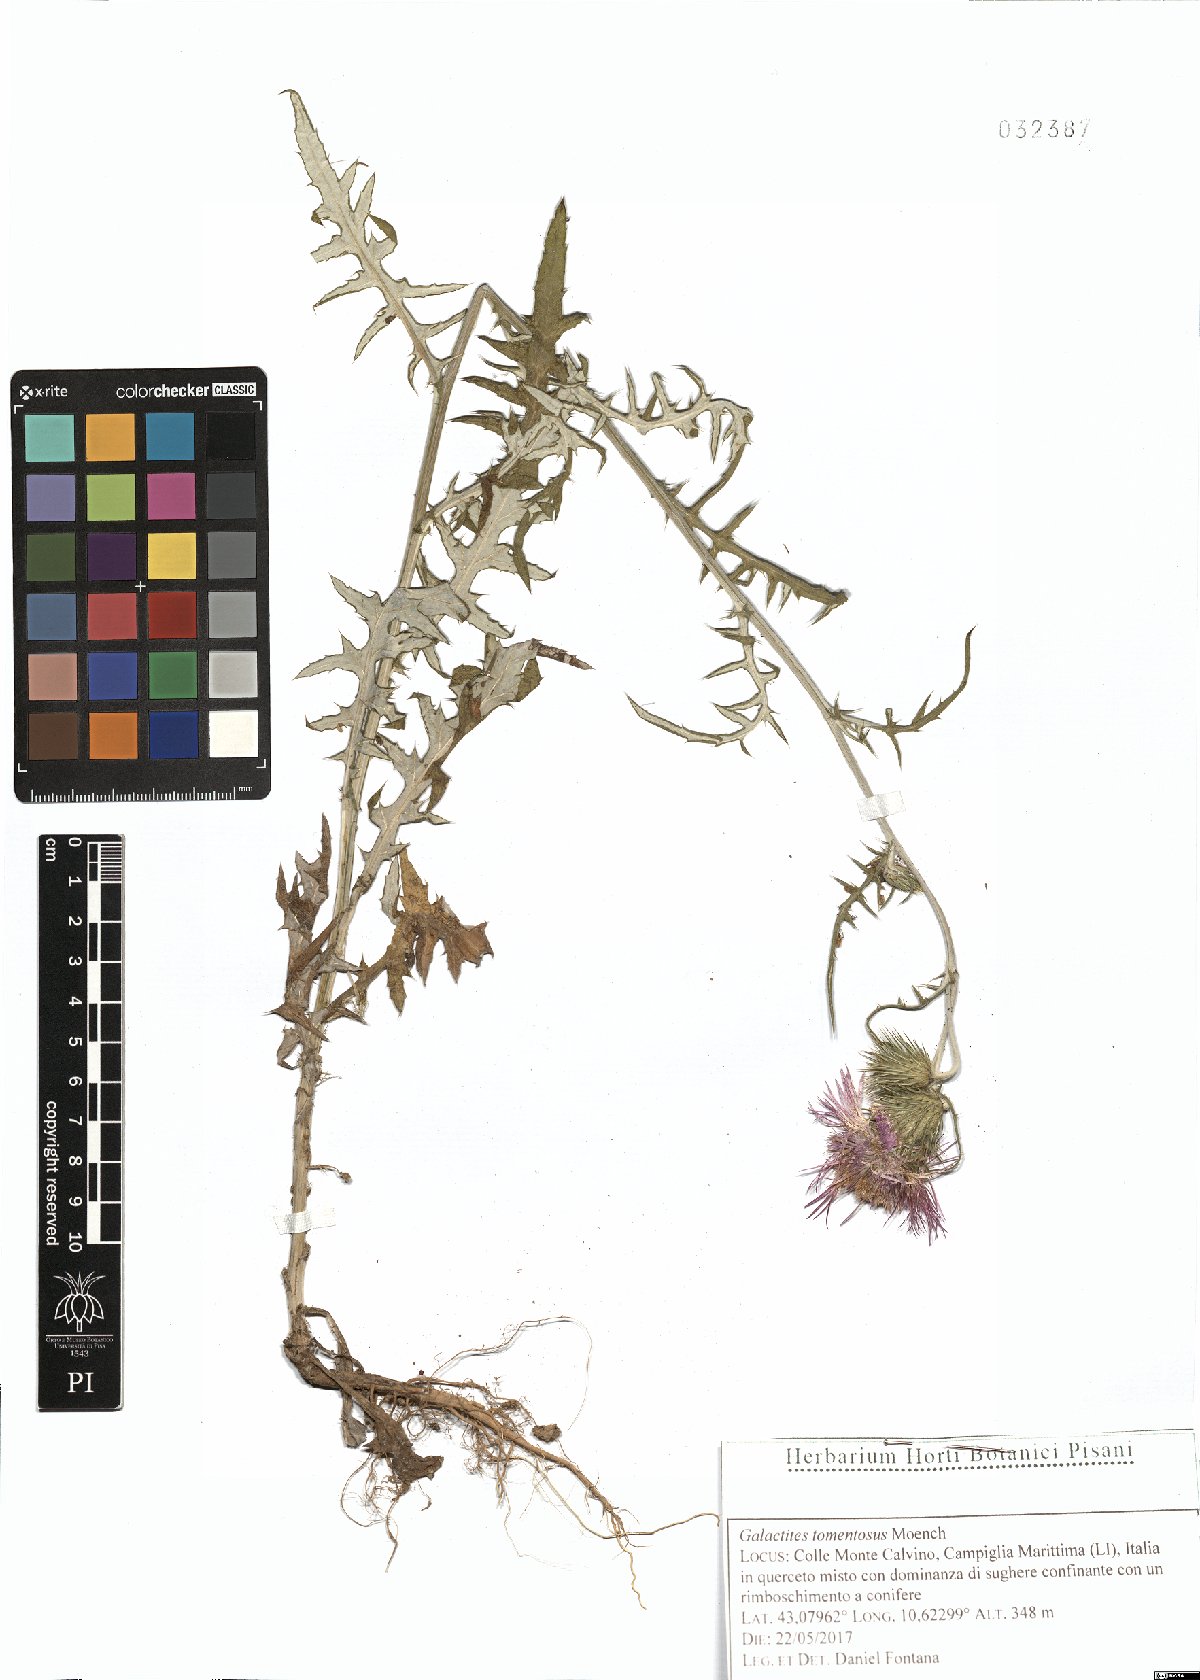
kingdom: Plantae
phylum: Tracheophyta
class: Magnoliopsida
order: Asterales
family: Asteraceae
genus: Galactites
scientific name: Galactites tomentosa
